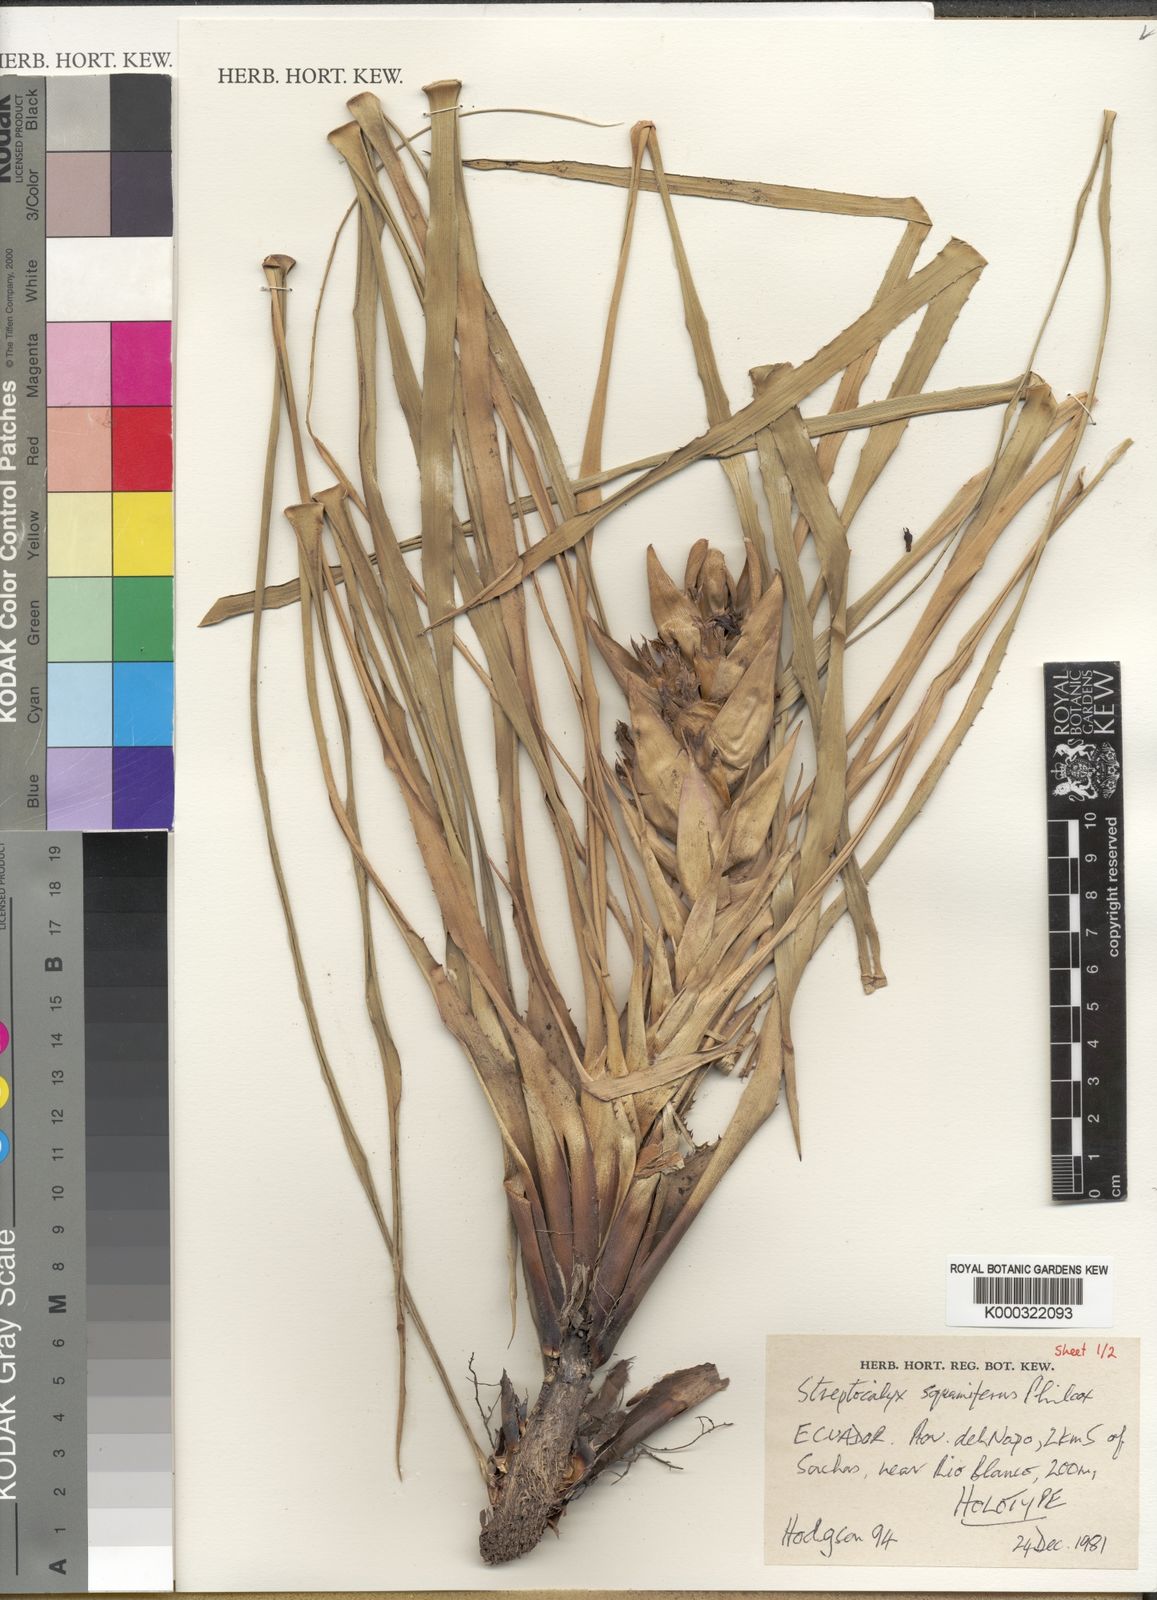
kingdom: Plantae
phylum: Tracheophyta
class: Liliopsida
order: Poales
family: Bromeliaceae
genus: Aechmea
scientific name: Aechmea
